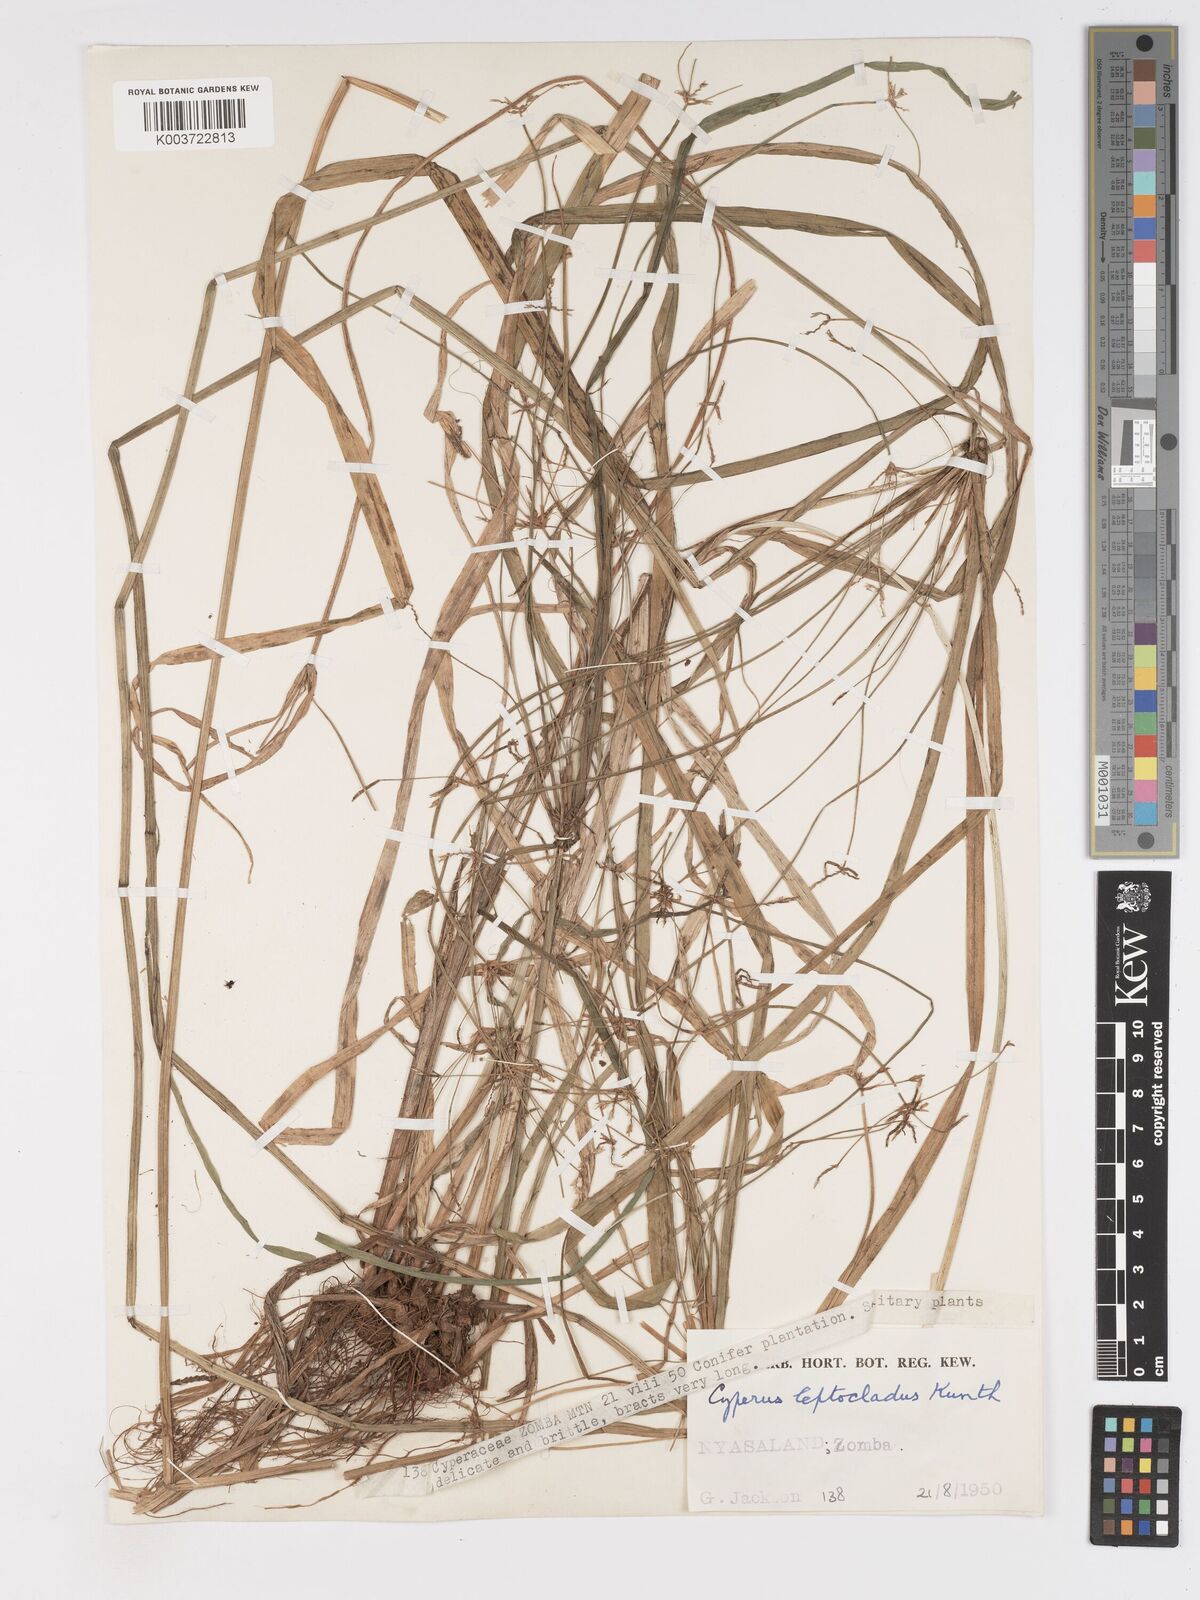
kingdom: Plantae
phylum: Tracheophyta
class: Liliopsida
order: Poales
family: Cyperaceae
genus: Cyperus
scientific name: Cyperus glaucophyllus
